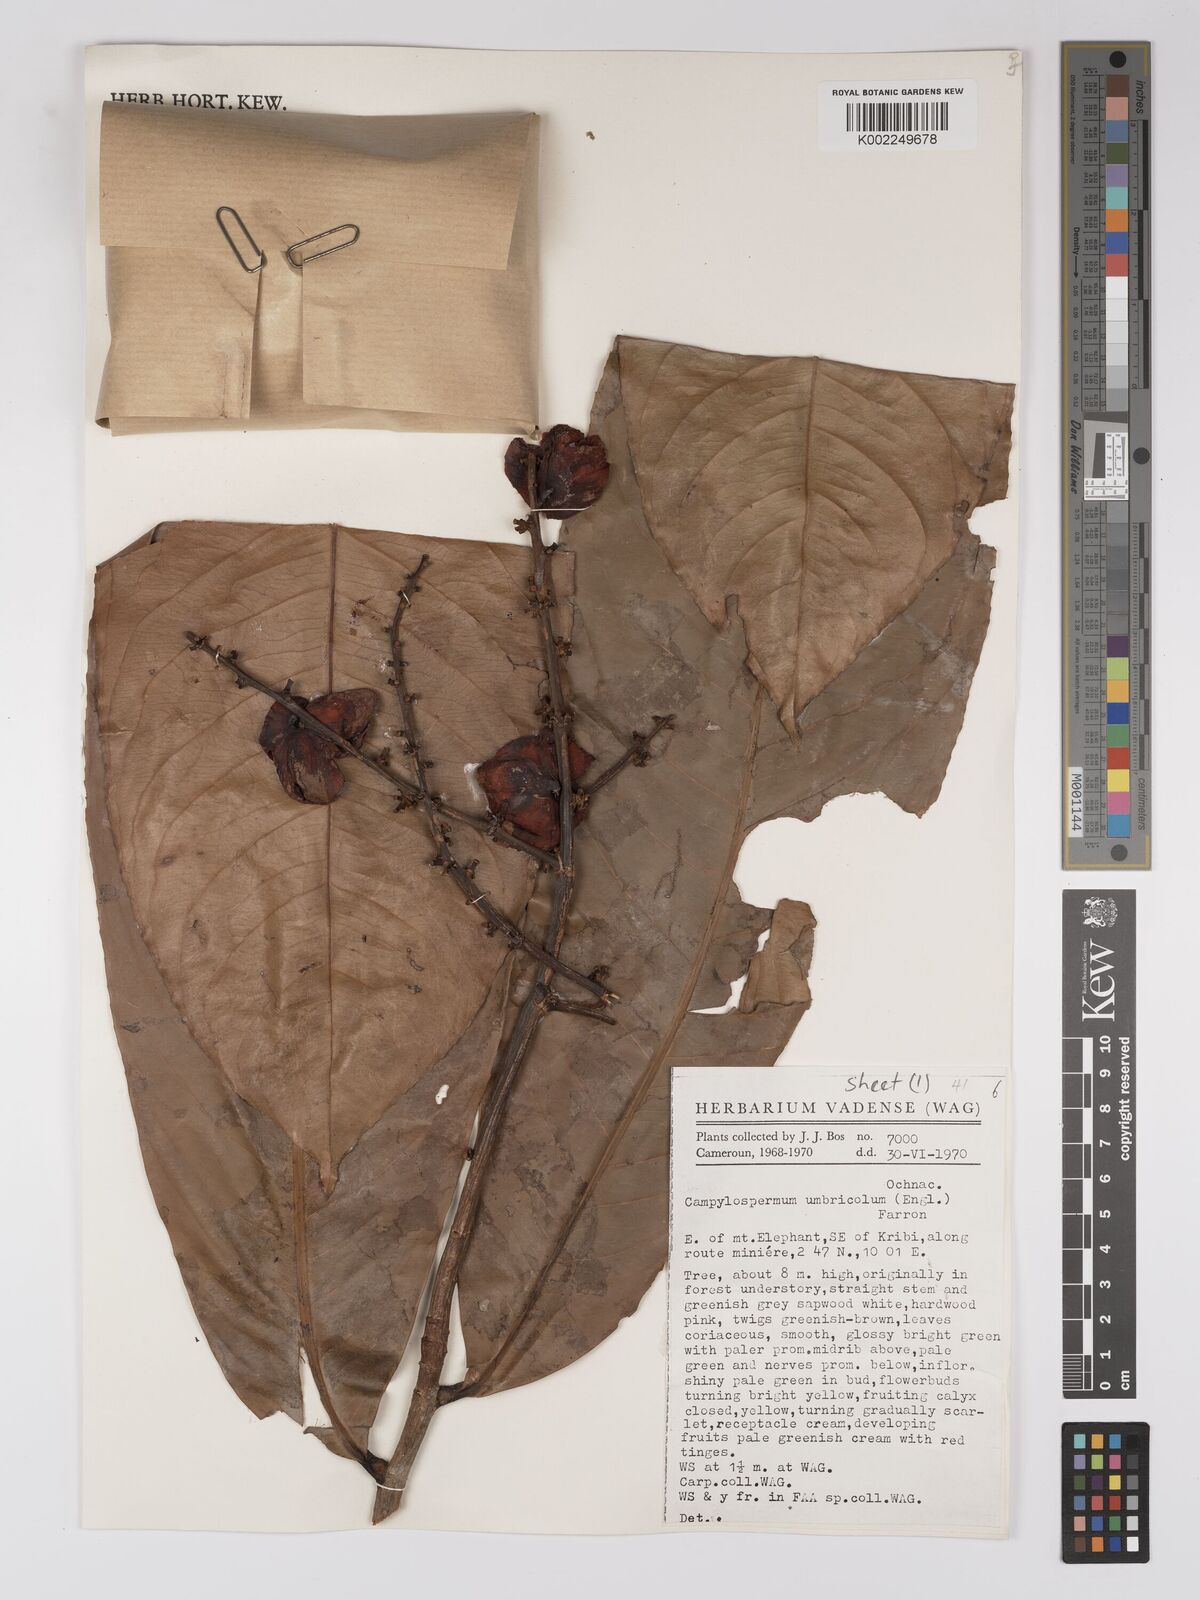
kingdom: Plantae
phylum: Tracheophyta
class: Magnoliopsida
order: Malpighiales
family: Ochnaceae
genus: Campylospermum
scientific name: Campylospermum umbricola
